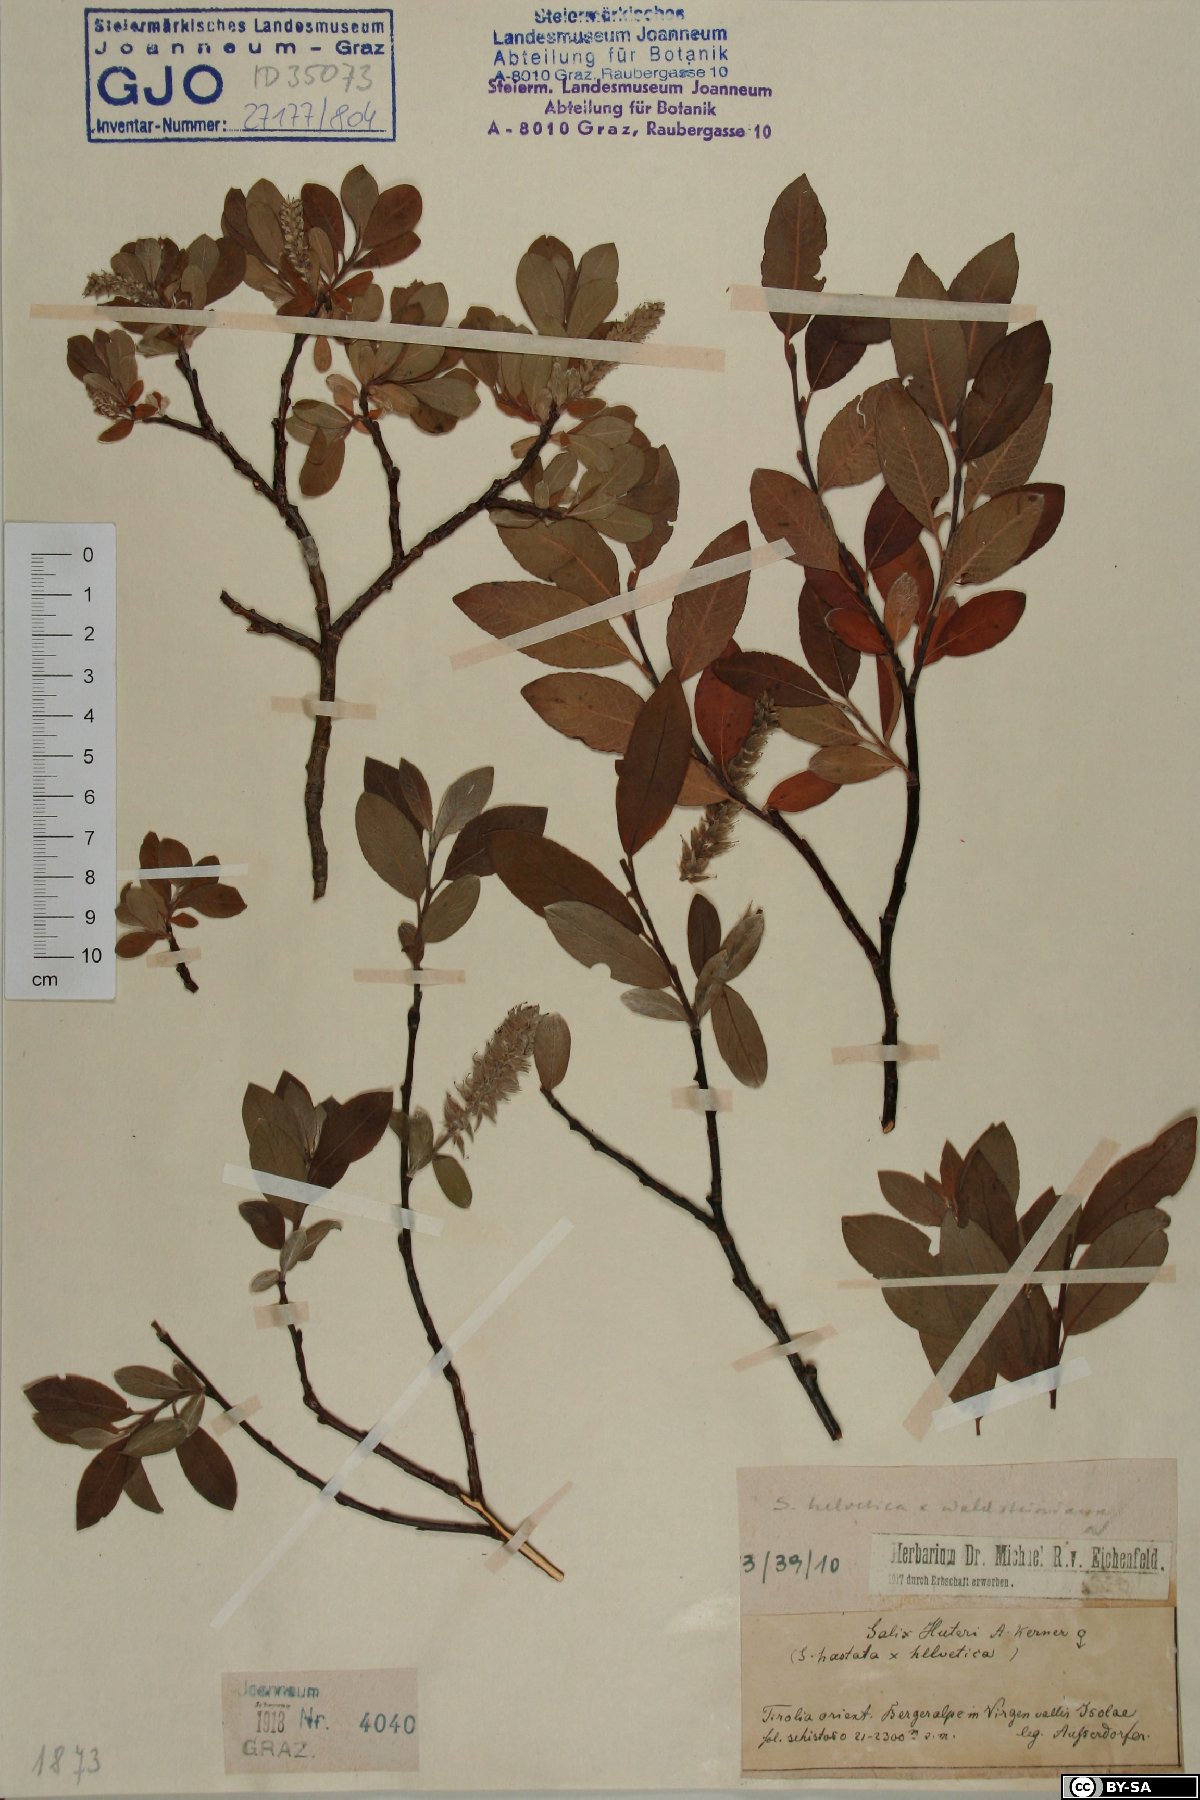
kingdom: Plantae
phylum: Tracheophyta
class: Magnoliopsida
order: Malpighiales
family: Salicaceae
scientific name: Salicaceae
